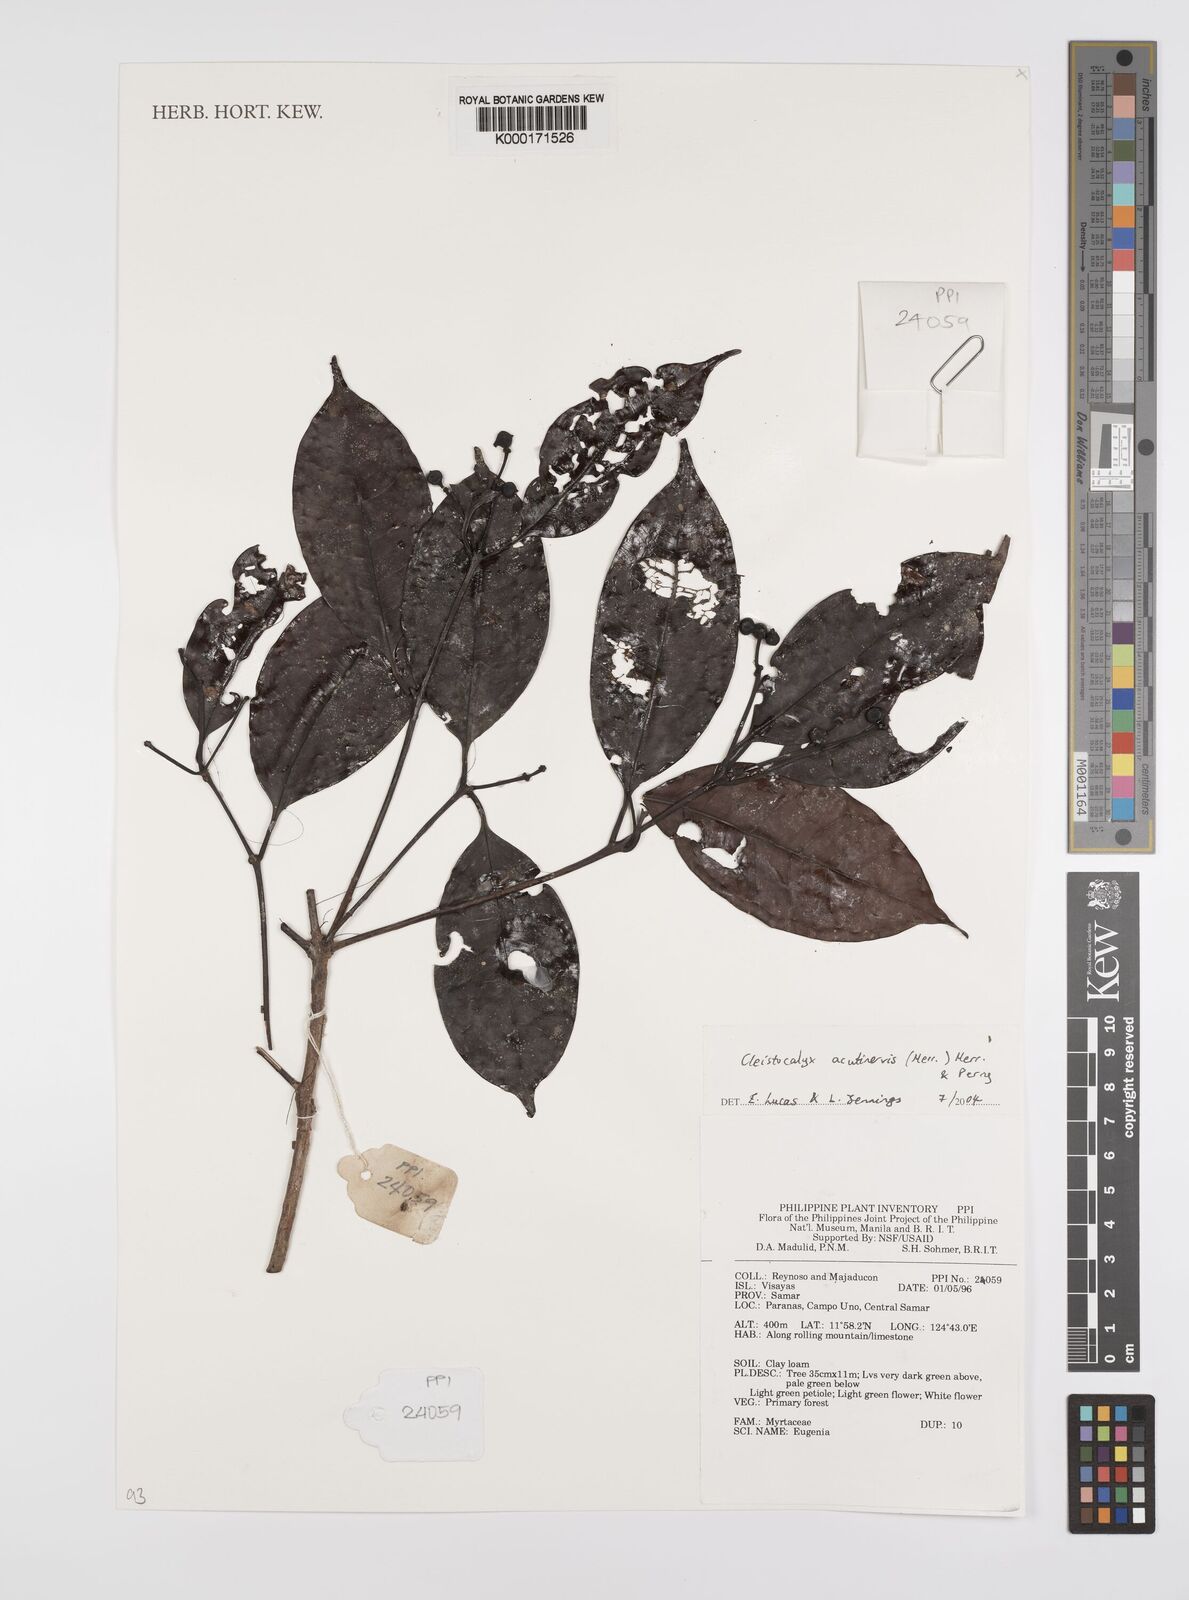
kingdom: Plantae
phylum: Tracheophyta
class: Magnoliopsida
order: Myrtales
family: Myrtaceae
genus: Syzygium
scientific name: Syzygium
